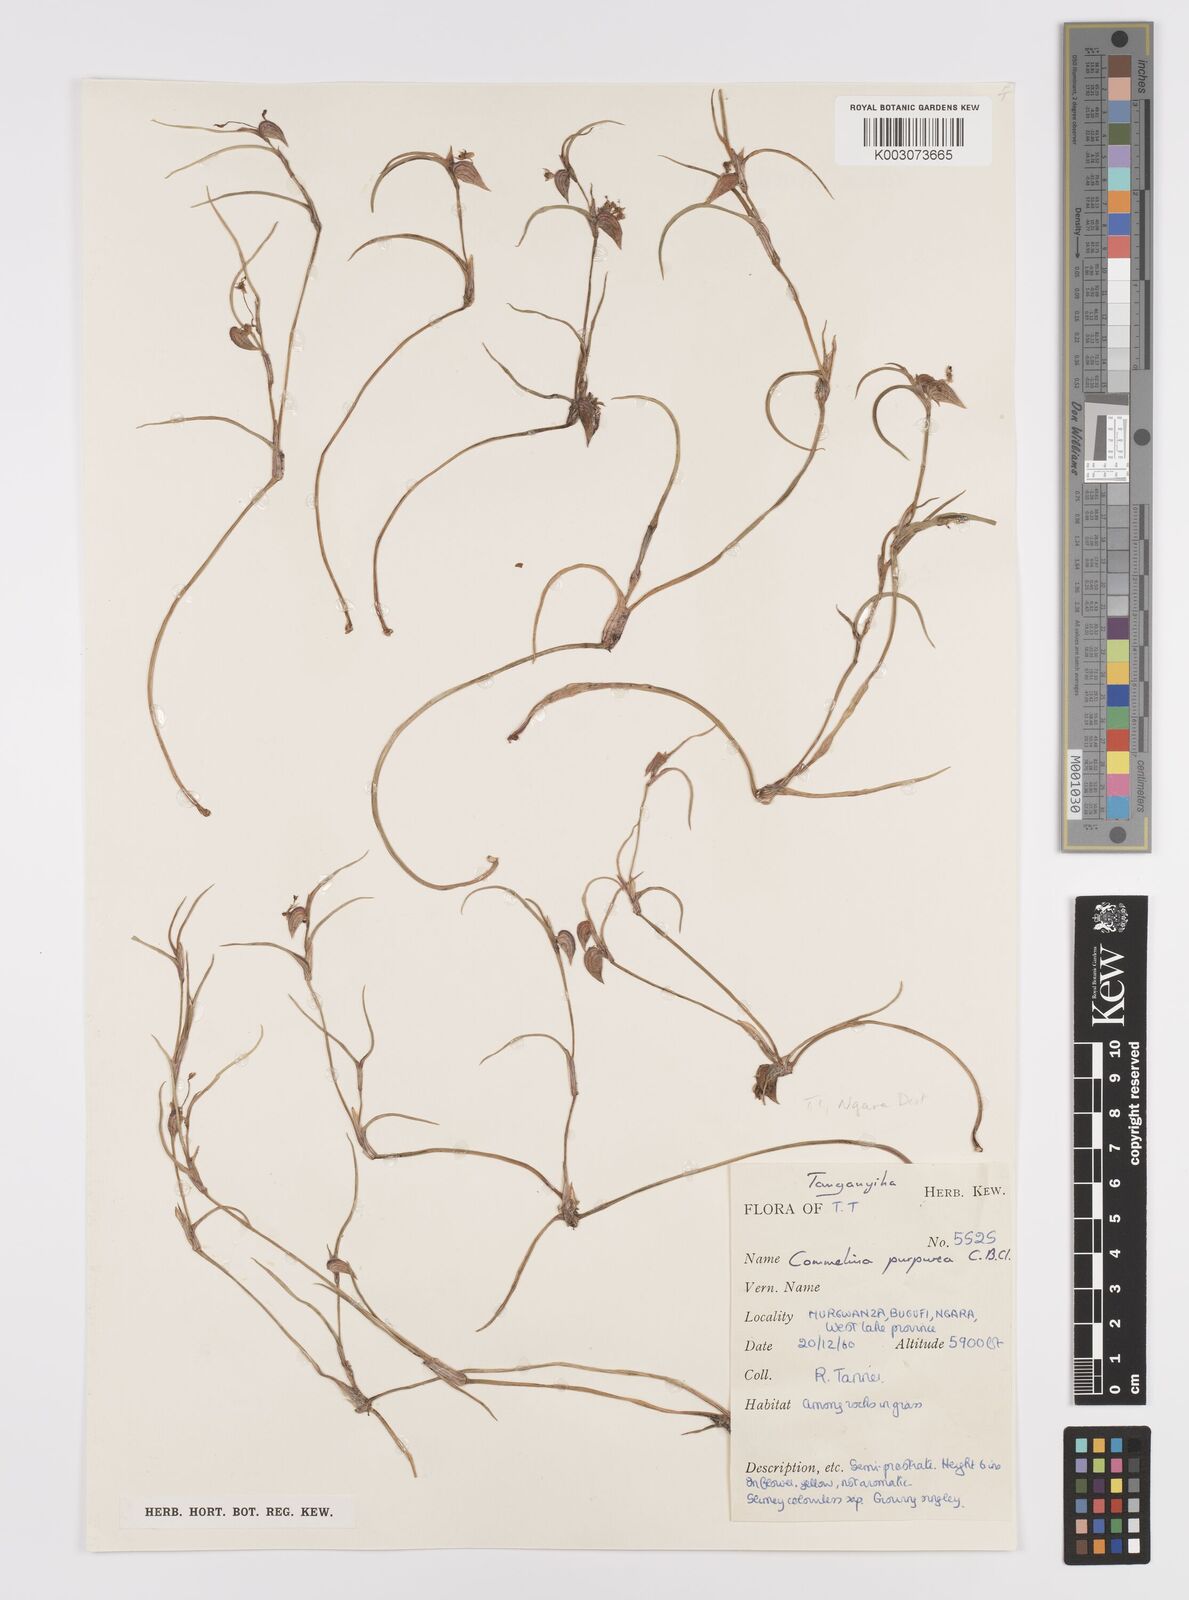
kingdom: Plantae
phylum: Tracheophyta
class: Liliopsida
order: Commelinales
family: Commelinaceae
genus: Commelina
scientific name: Commelina purpurea
